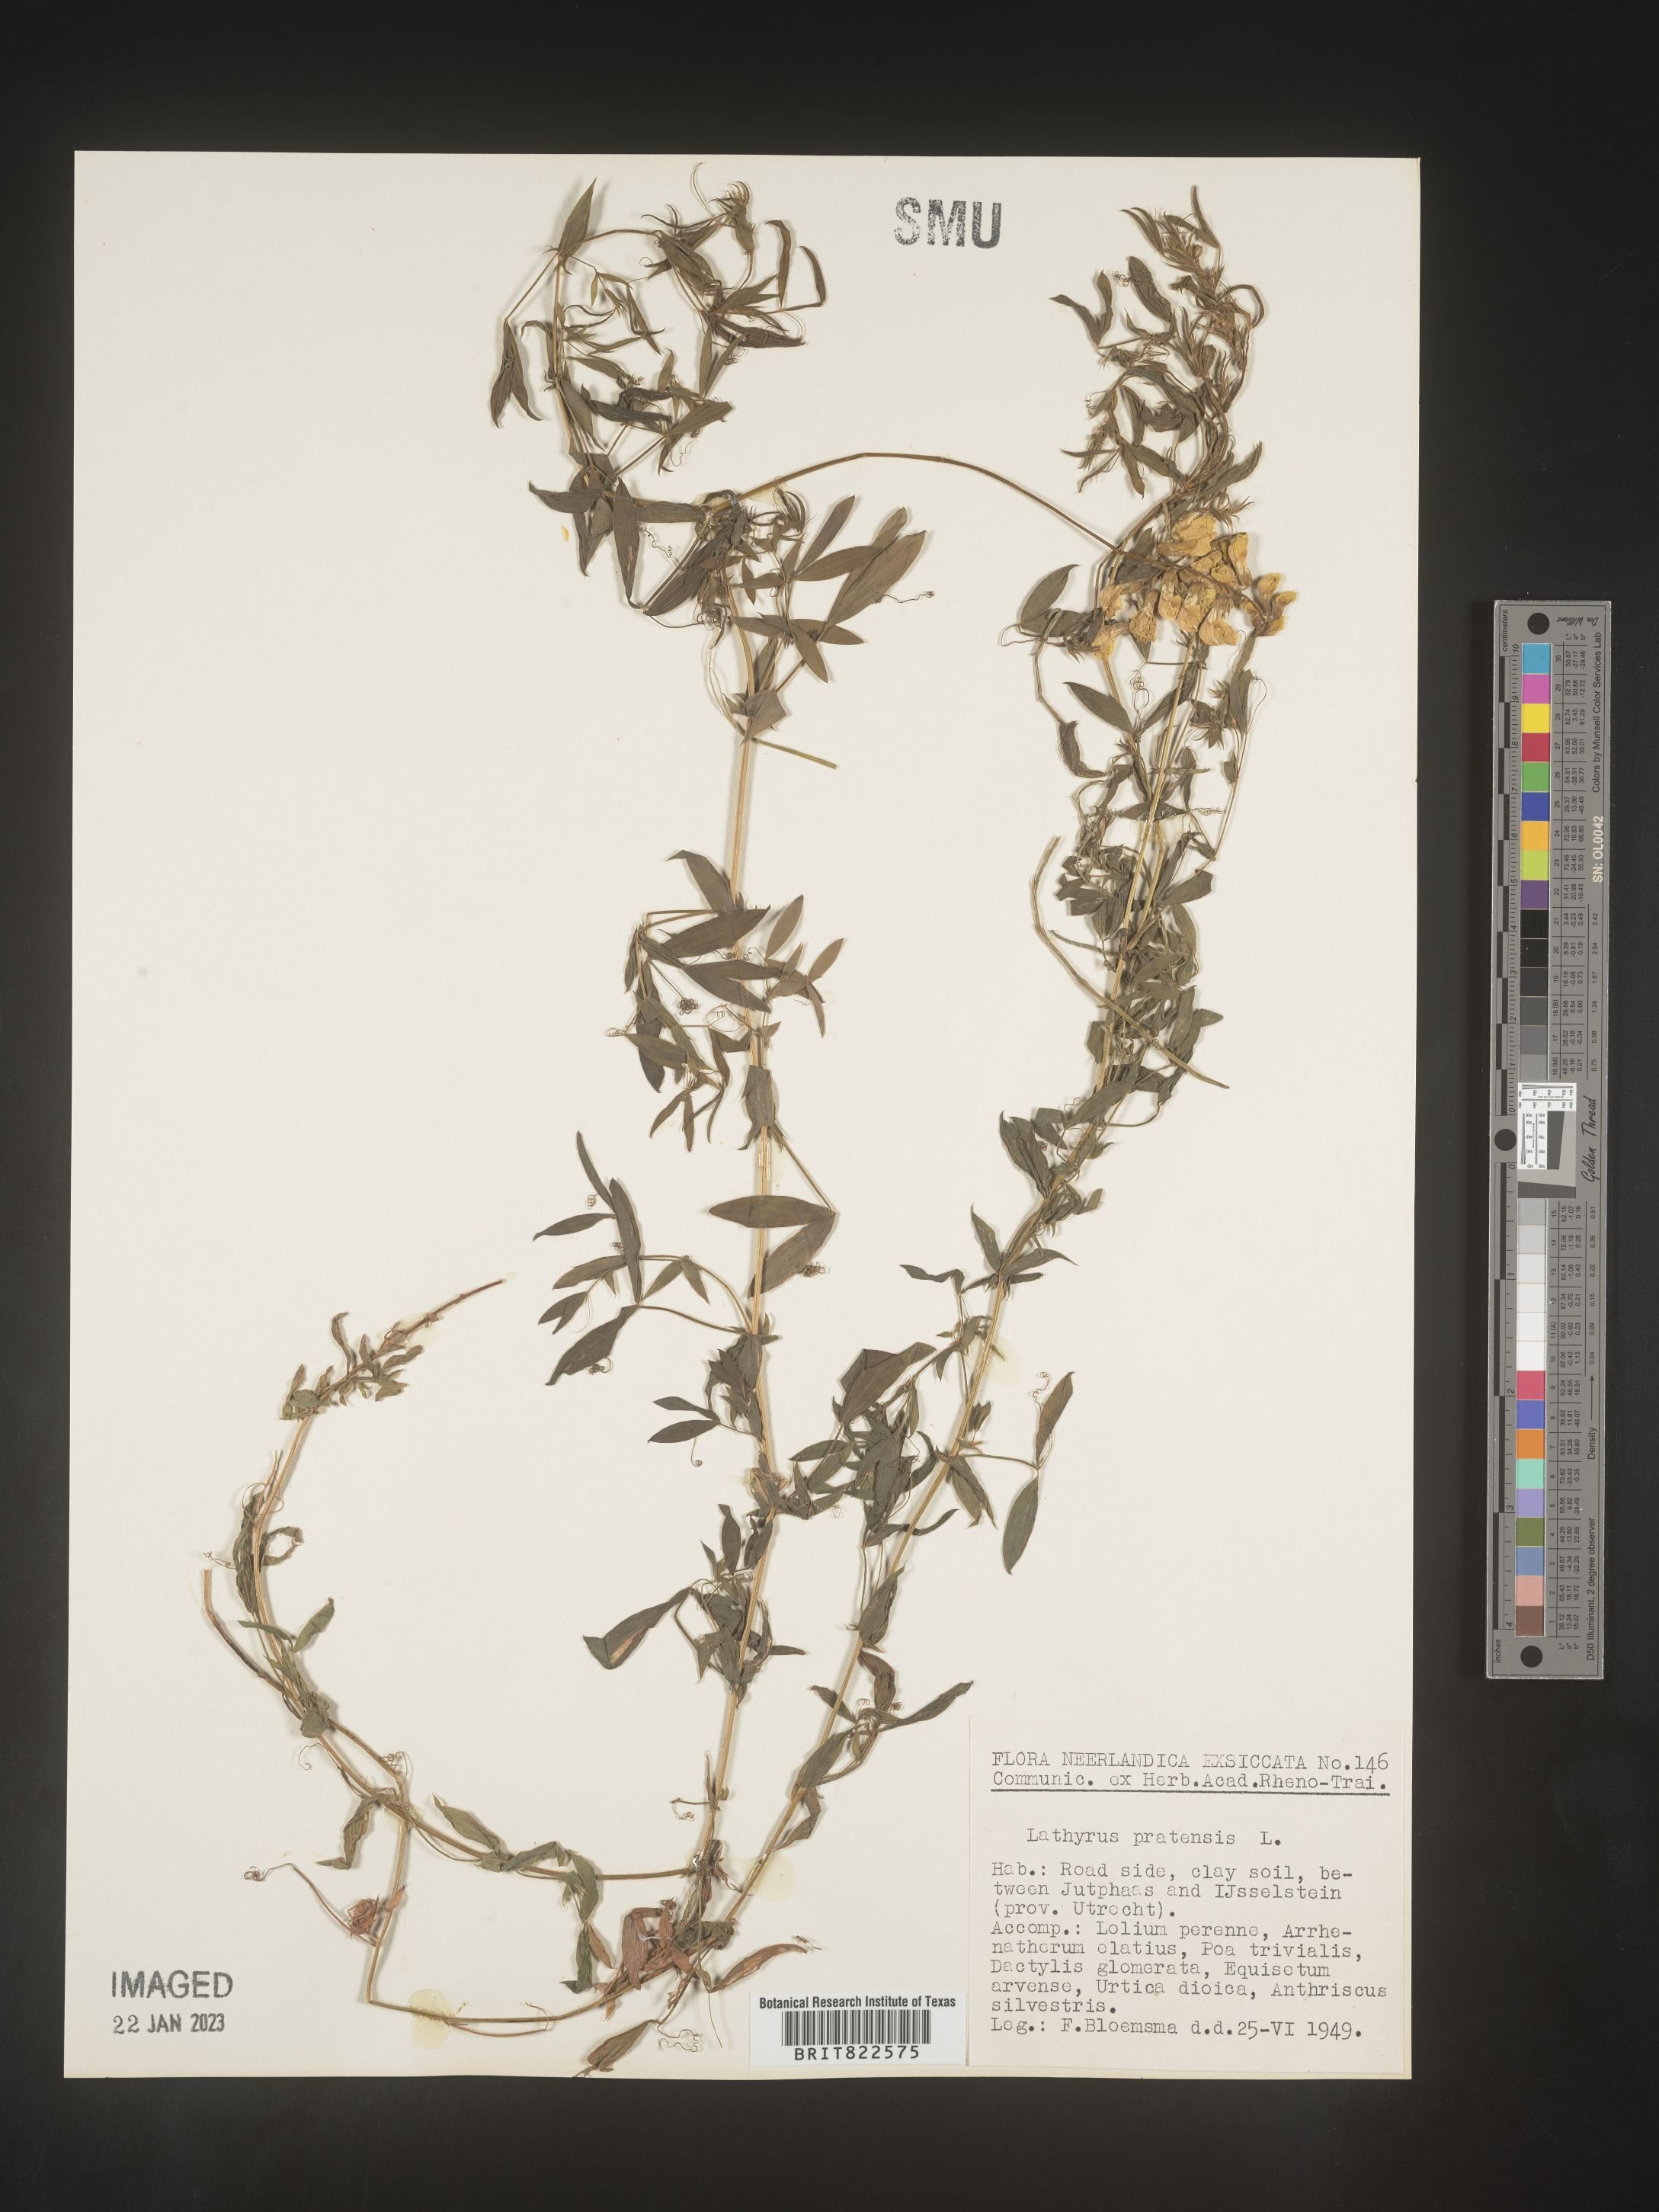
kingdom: Plantae
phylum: Tracheophyta
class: Magnoliopsida
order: Fabales
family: Fabaceae
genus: Lathyrus
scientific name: Lathyrus
